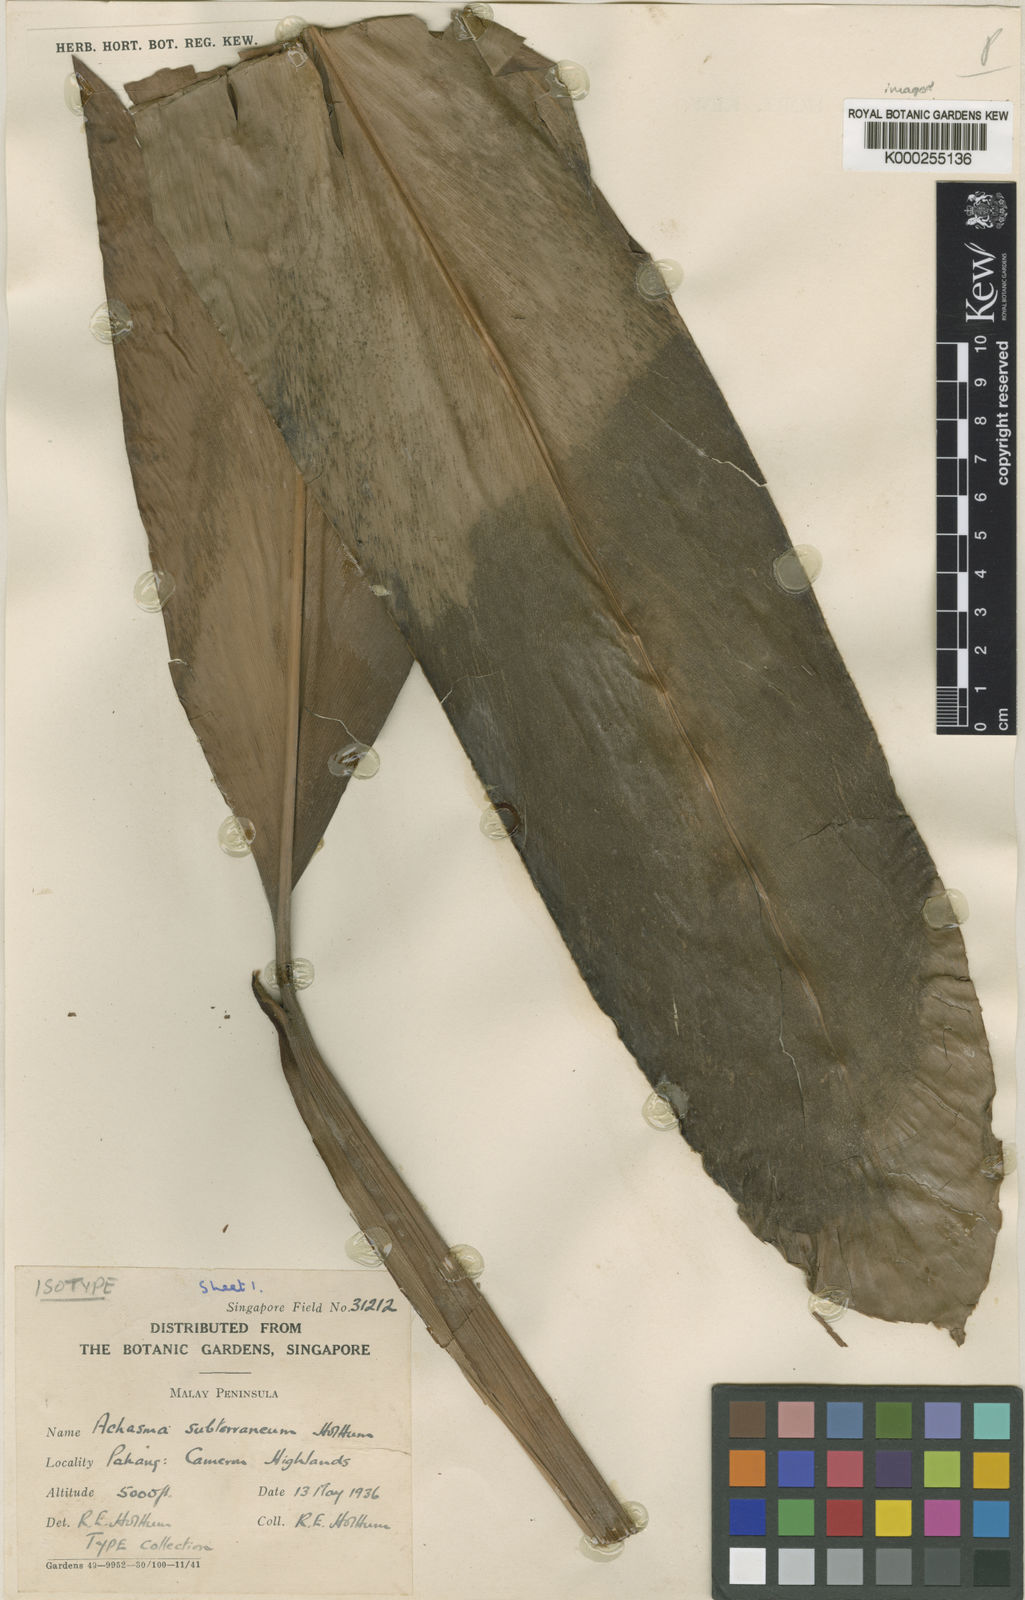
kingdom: Plantae
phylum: Tracheophyta
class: Liliopsida
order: Zingiberales
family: Zingiberaceae
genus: Etlingera
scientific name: Etlingera subterranea
